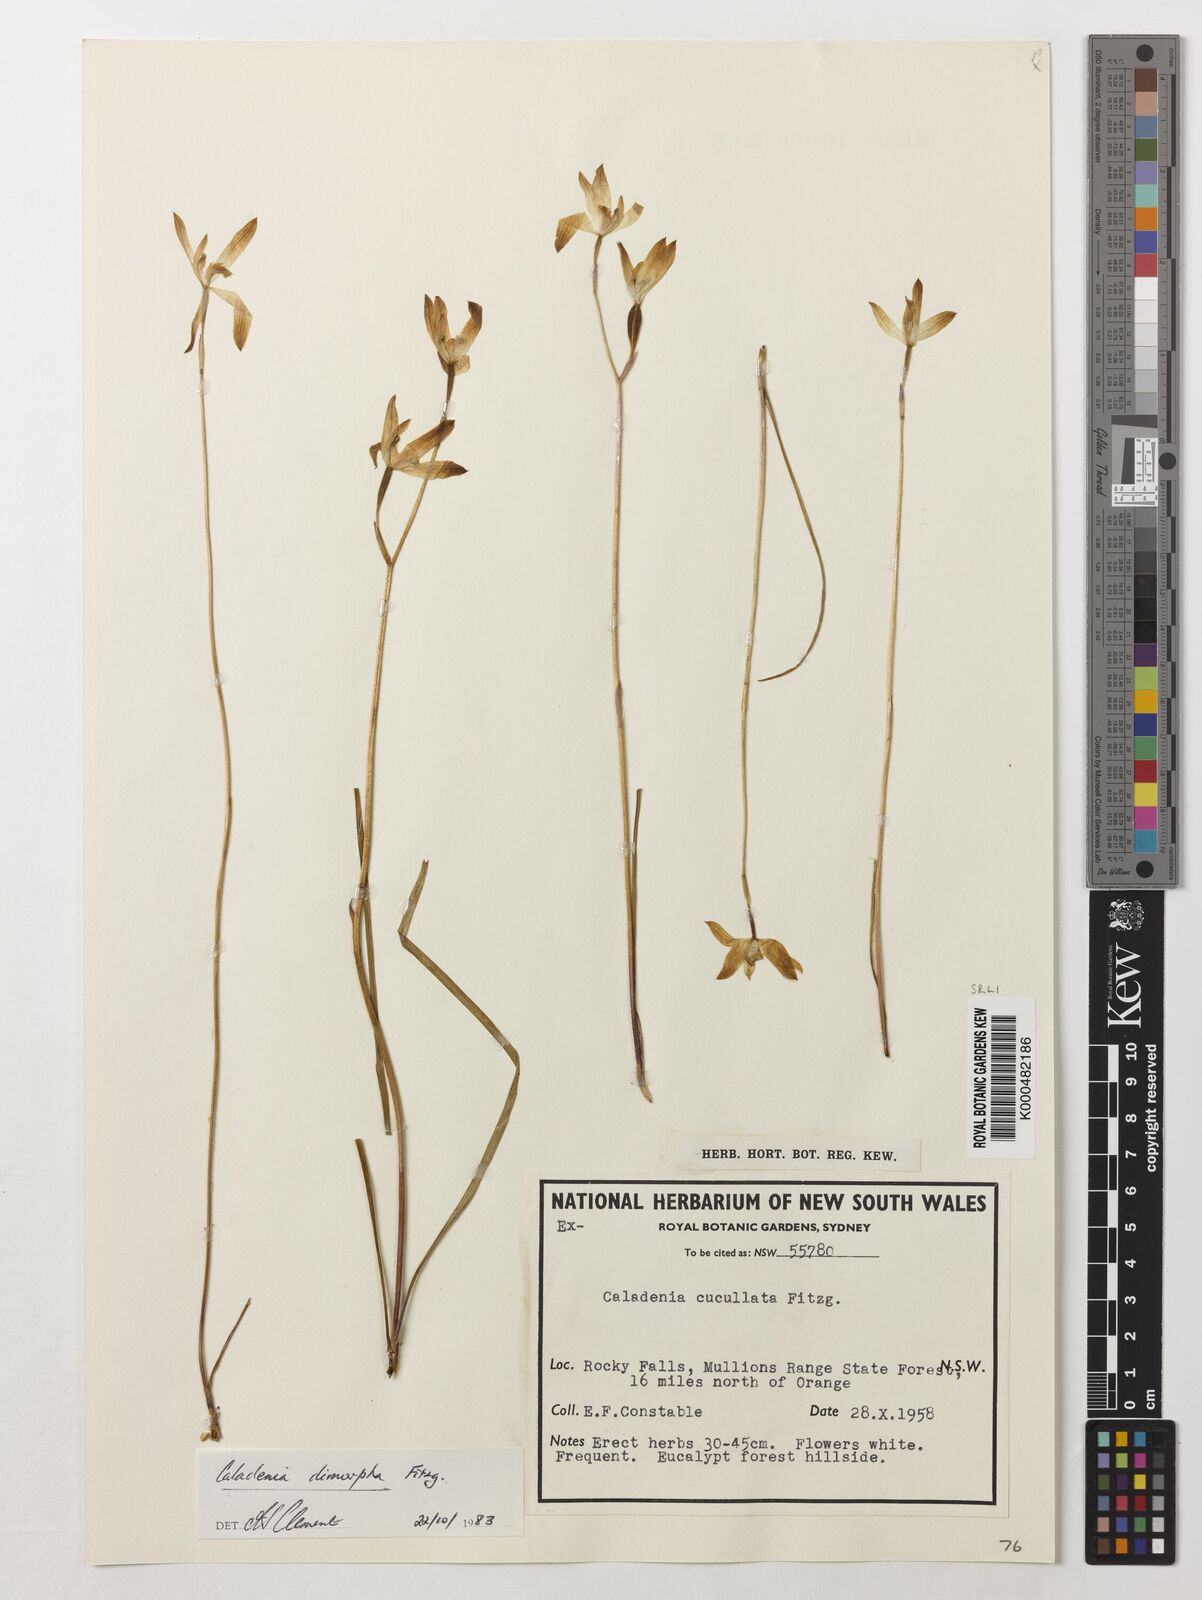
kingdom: Plantae
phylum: Tracheophyta
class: Liliopsida
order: Asparagales
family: Orchidaceae
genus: Caladenia
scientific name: Caladenia
